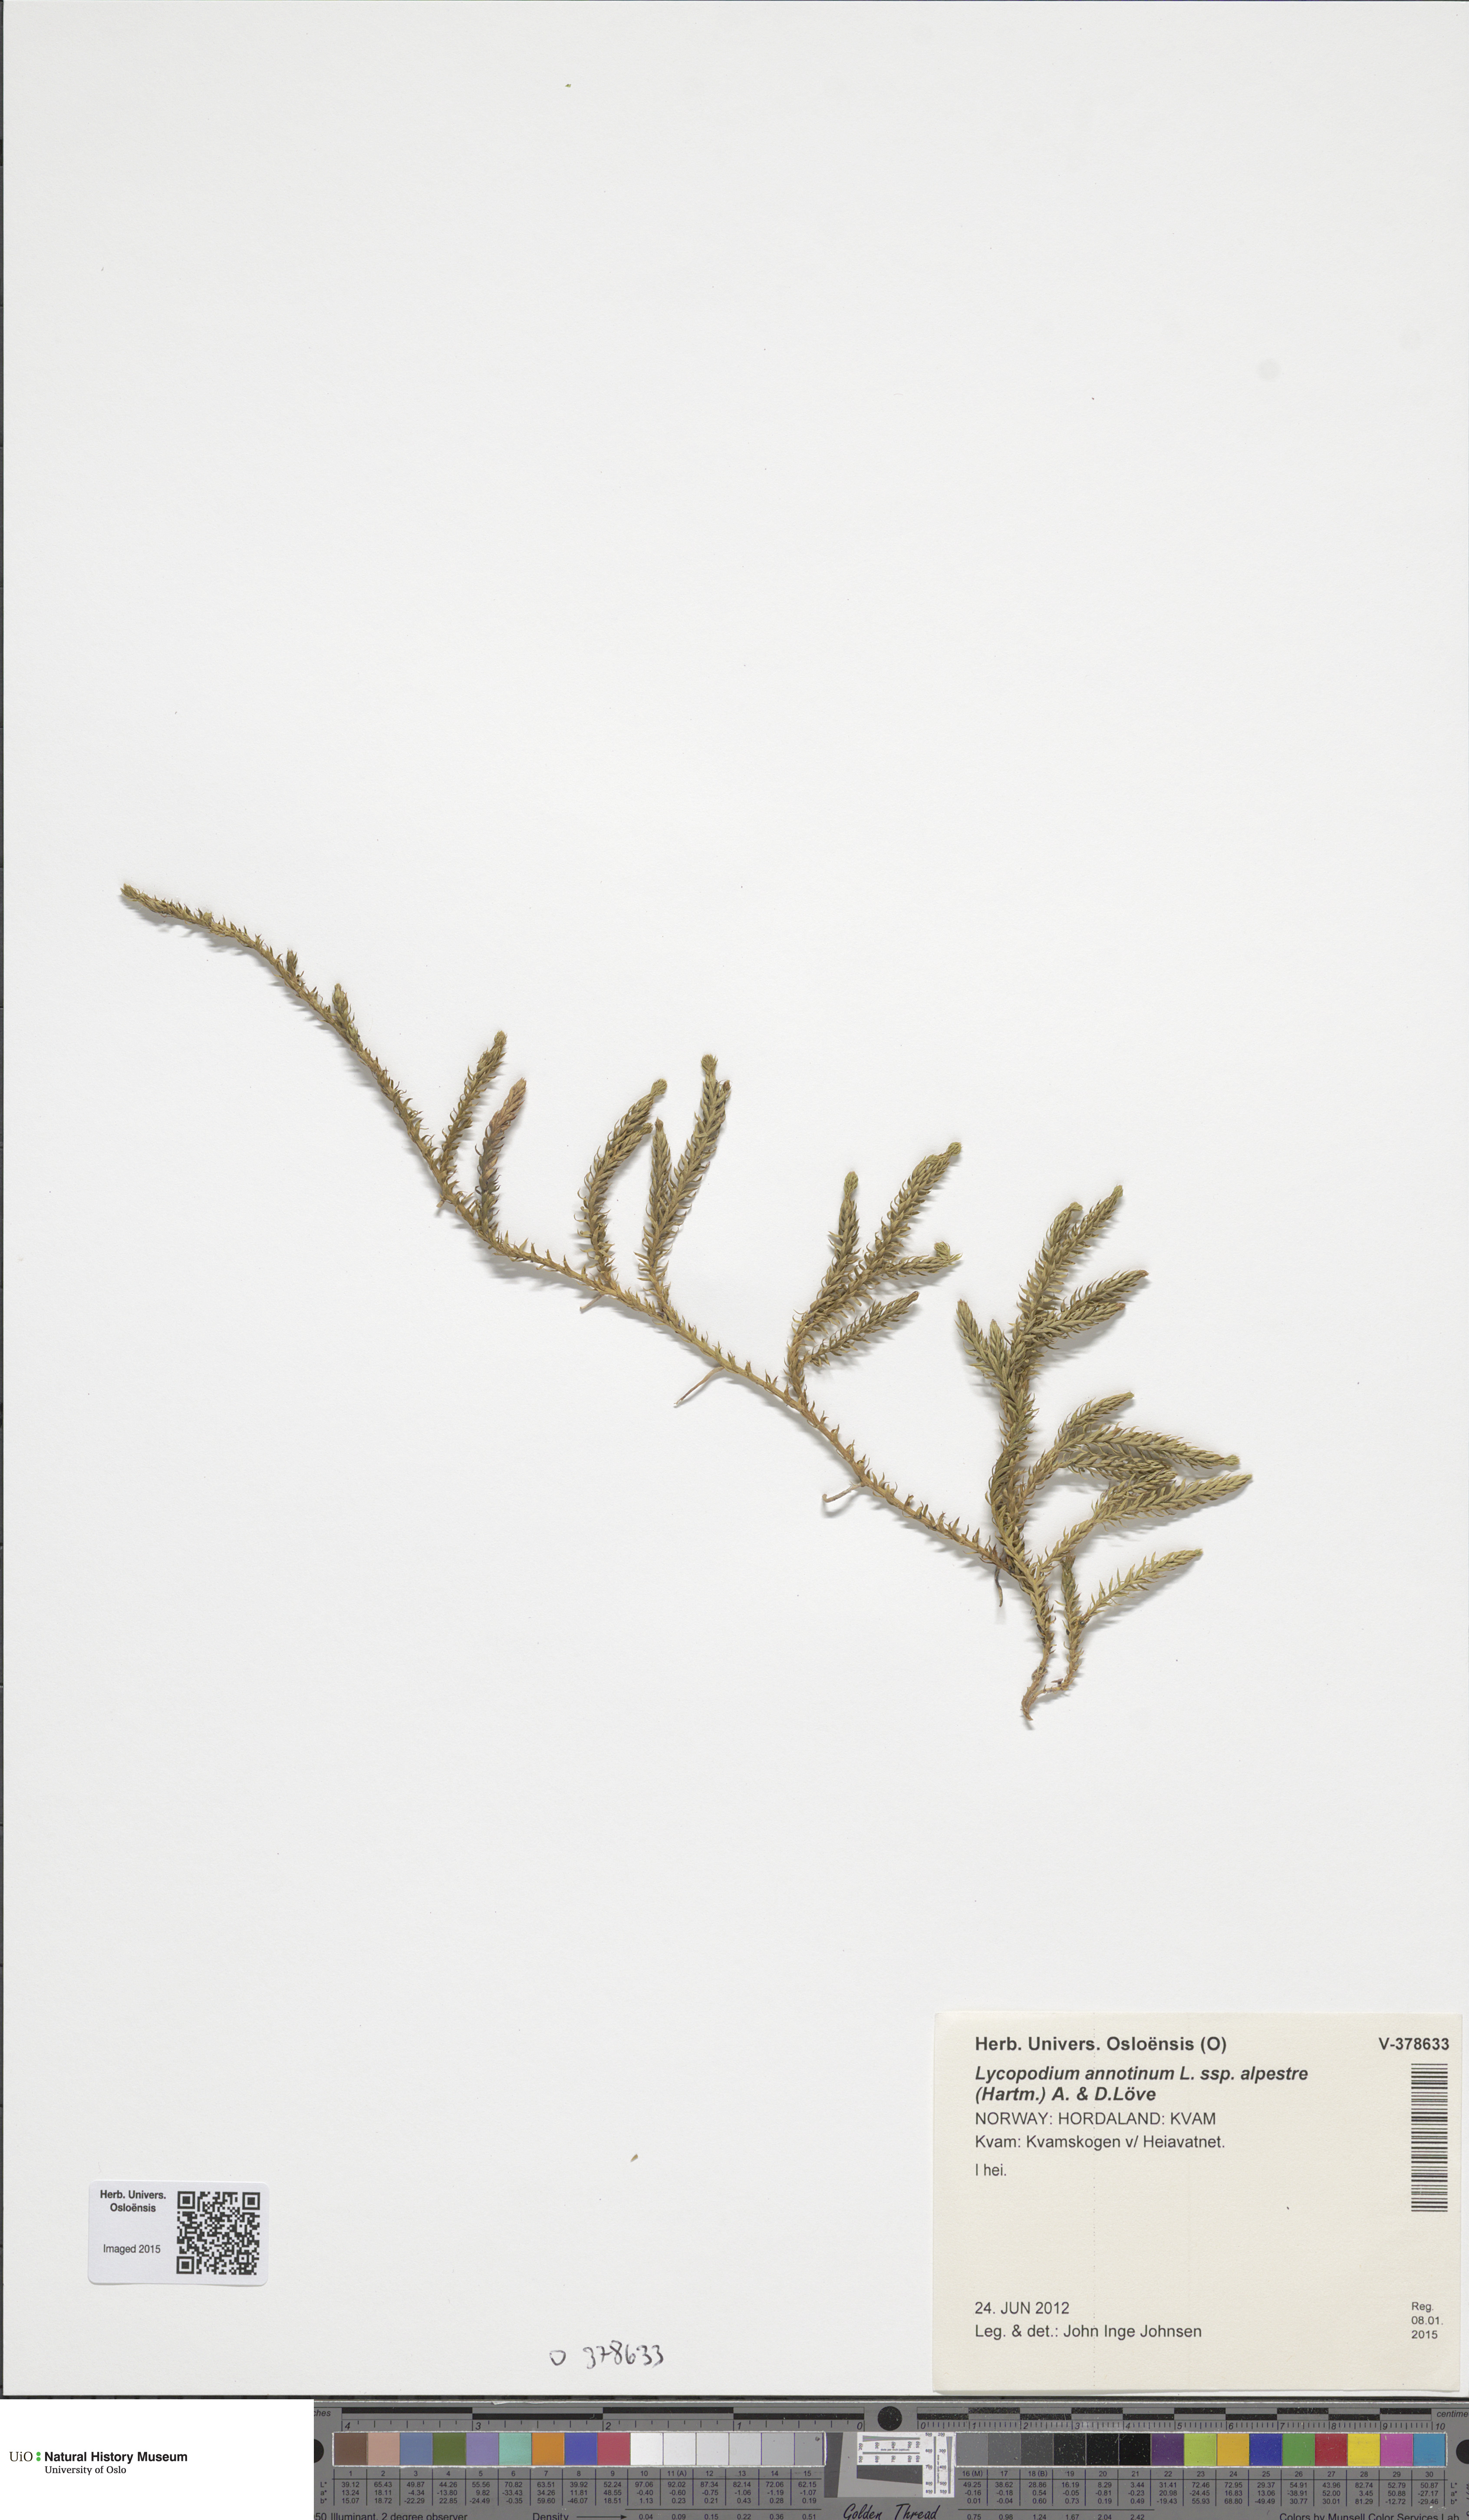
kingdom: Plantae
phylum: Tracheophyta
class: Lycopodiopsida
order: Lycopodiales
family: Lycopodiaceae
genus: Spinulum
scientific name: Spinulum annotinum
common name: Interrupted club-moss
